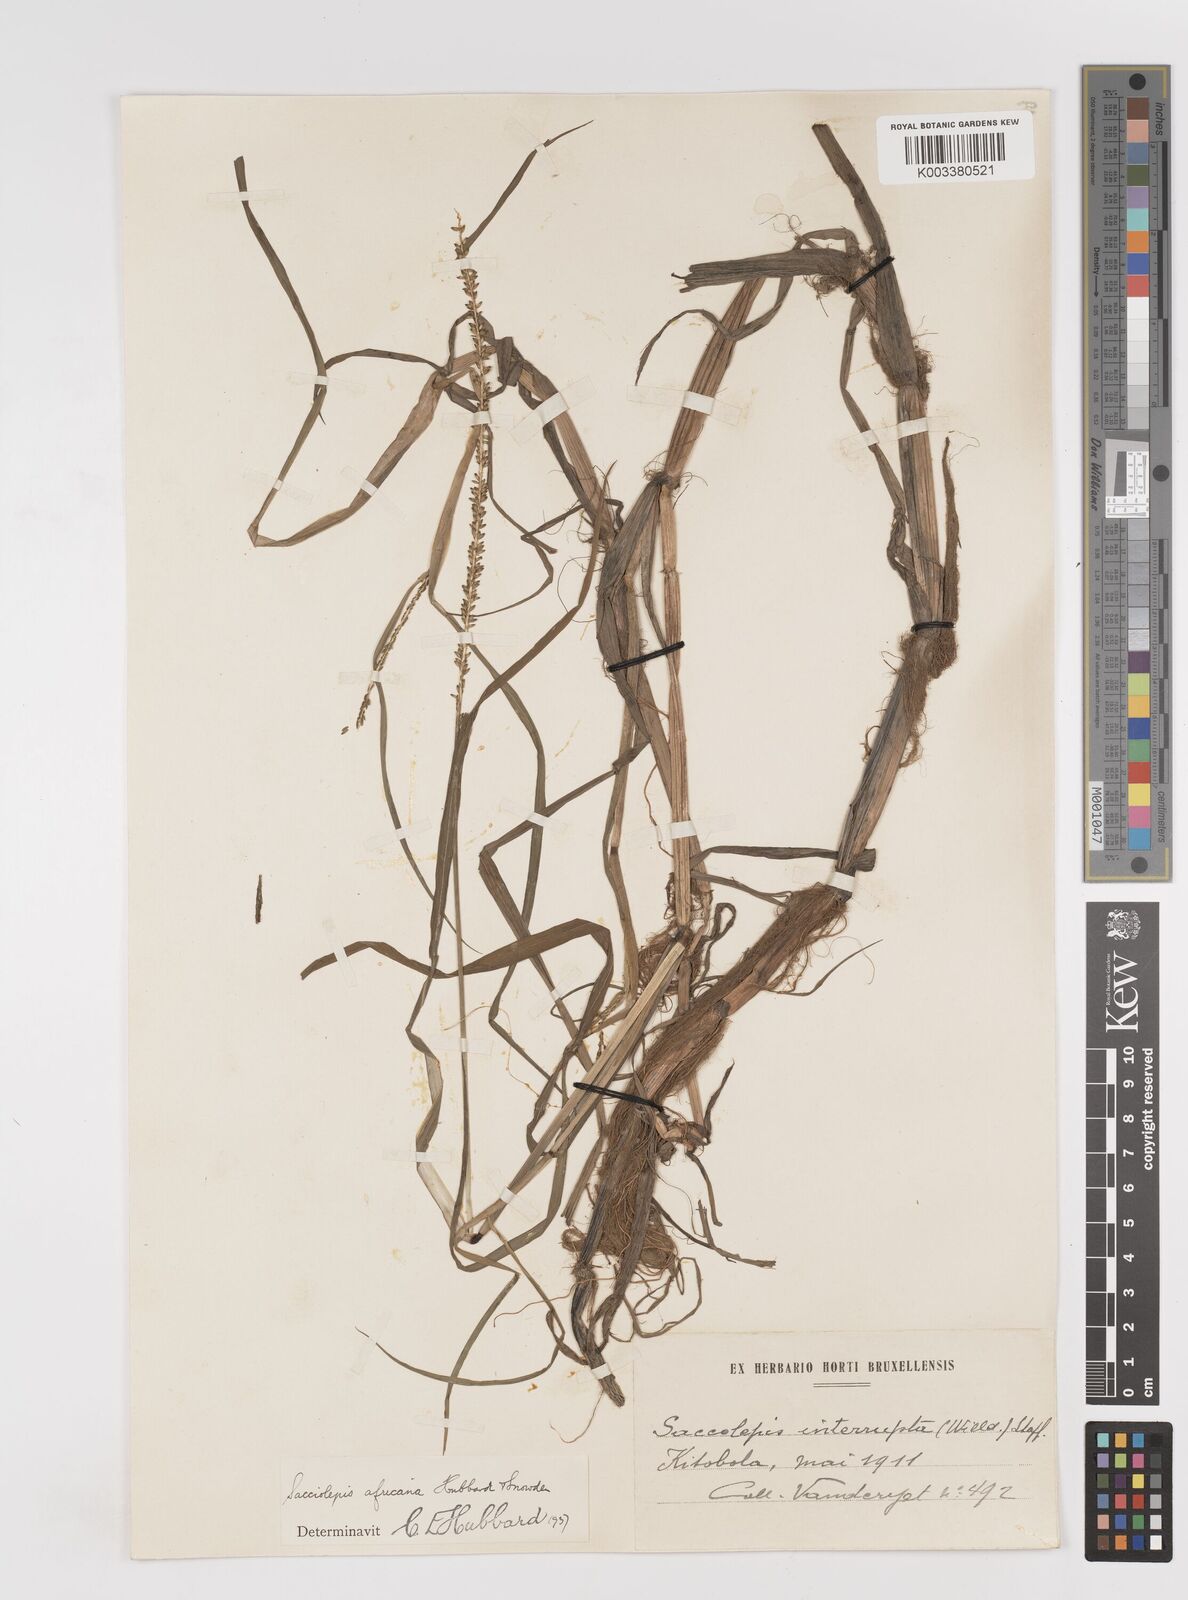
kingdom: Plantae
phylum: Tracheophyta
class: Liliopsida
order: Poales
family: Poaceae
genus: Sacciolepis
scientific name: Sacciolepis africana
